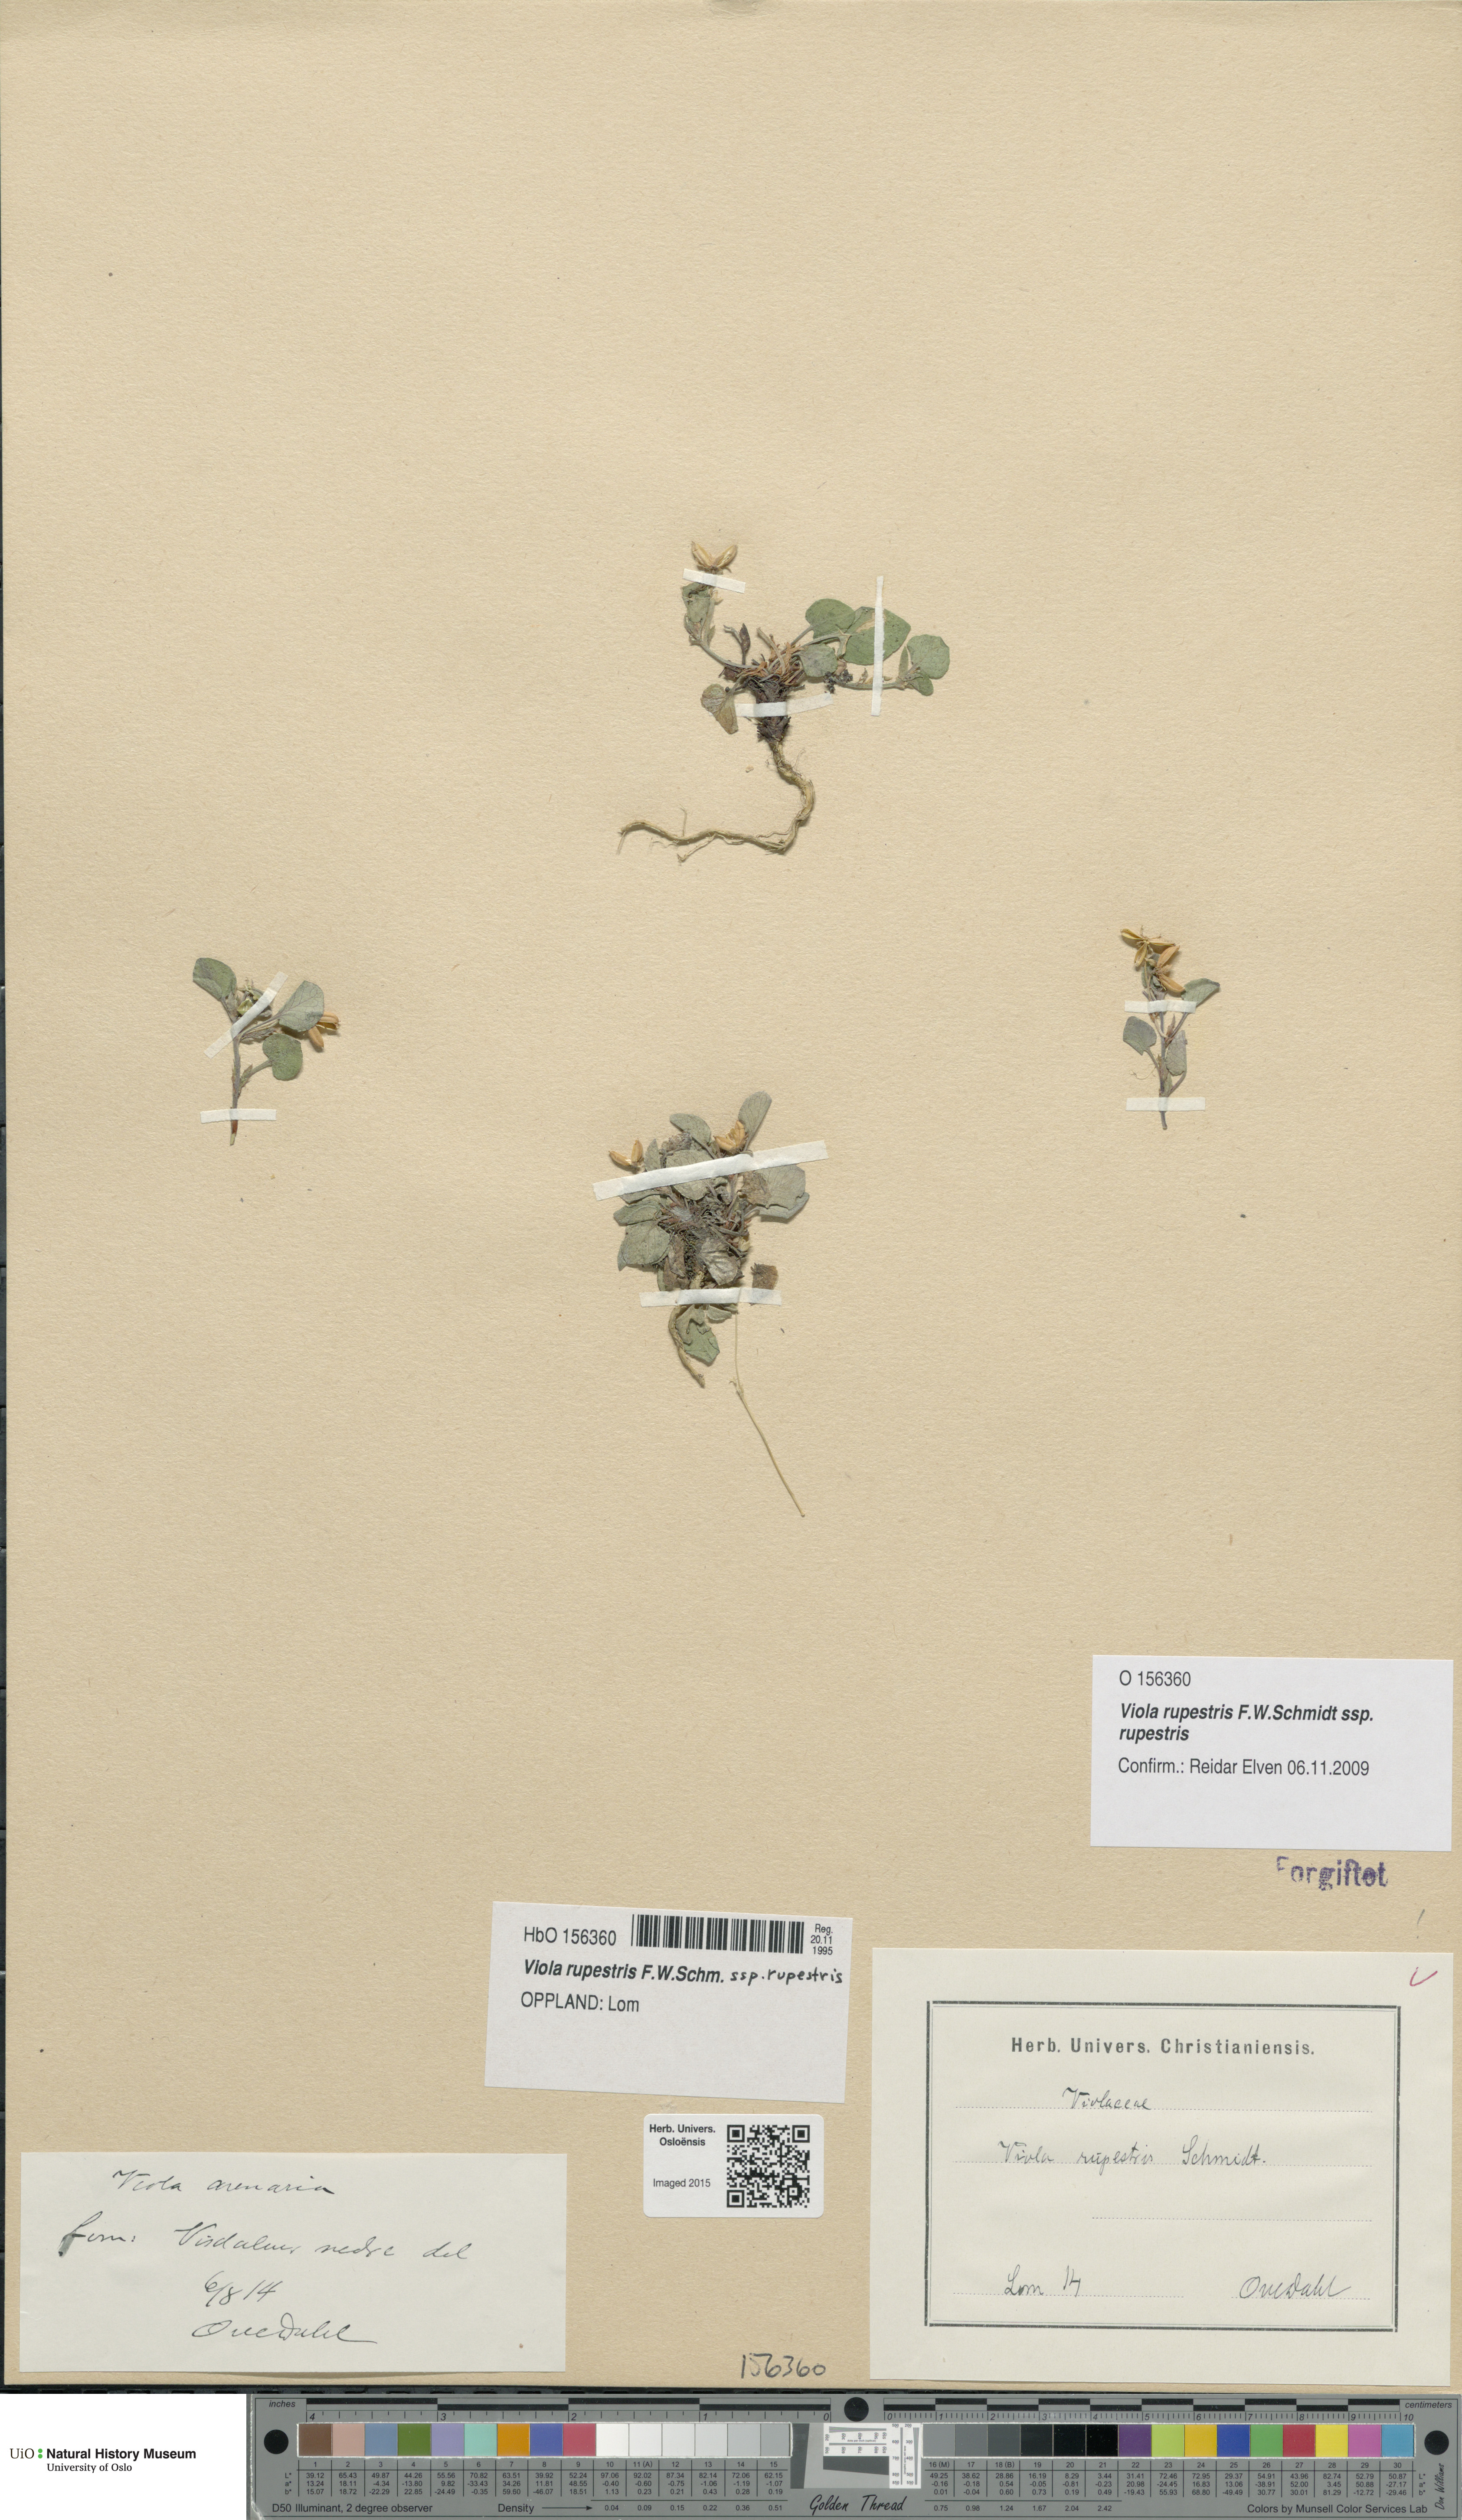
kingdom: Plantae
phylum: Tracheophyta
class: Magnoliopsida
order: Malpighiales
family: Violaceae
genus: Viola
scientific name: Viola rupestris
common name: Teesdale violet
